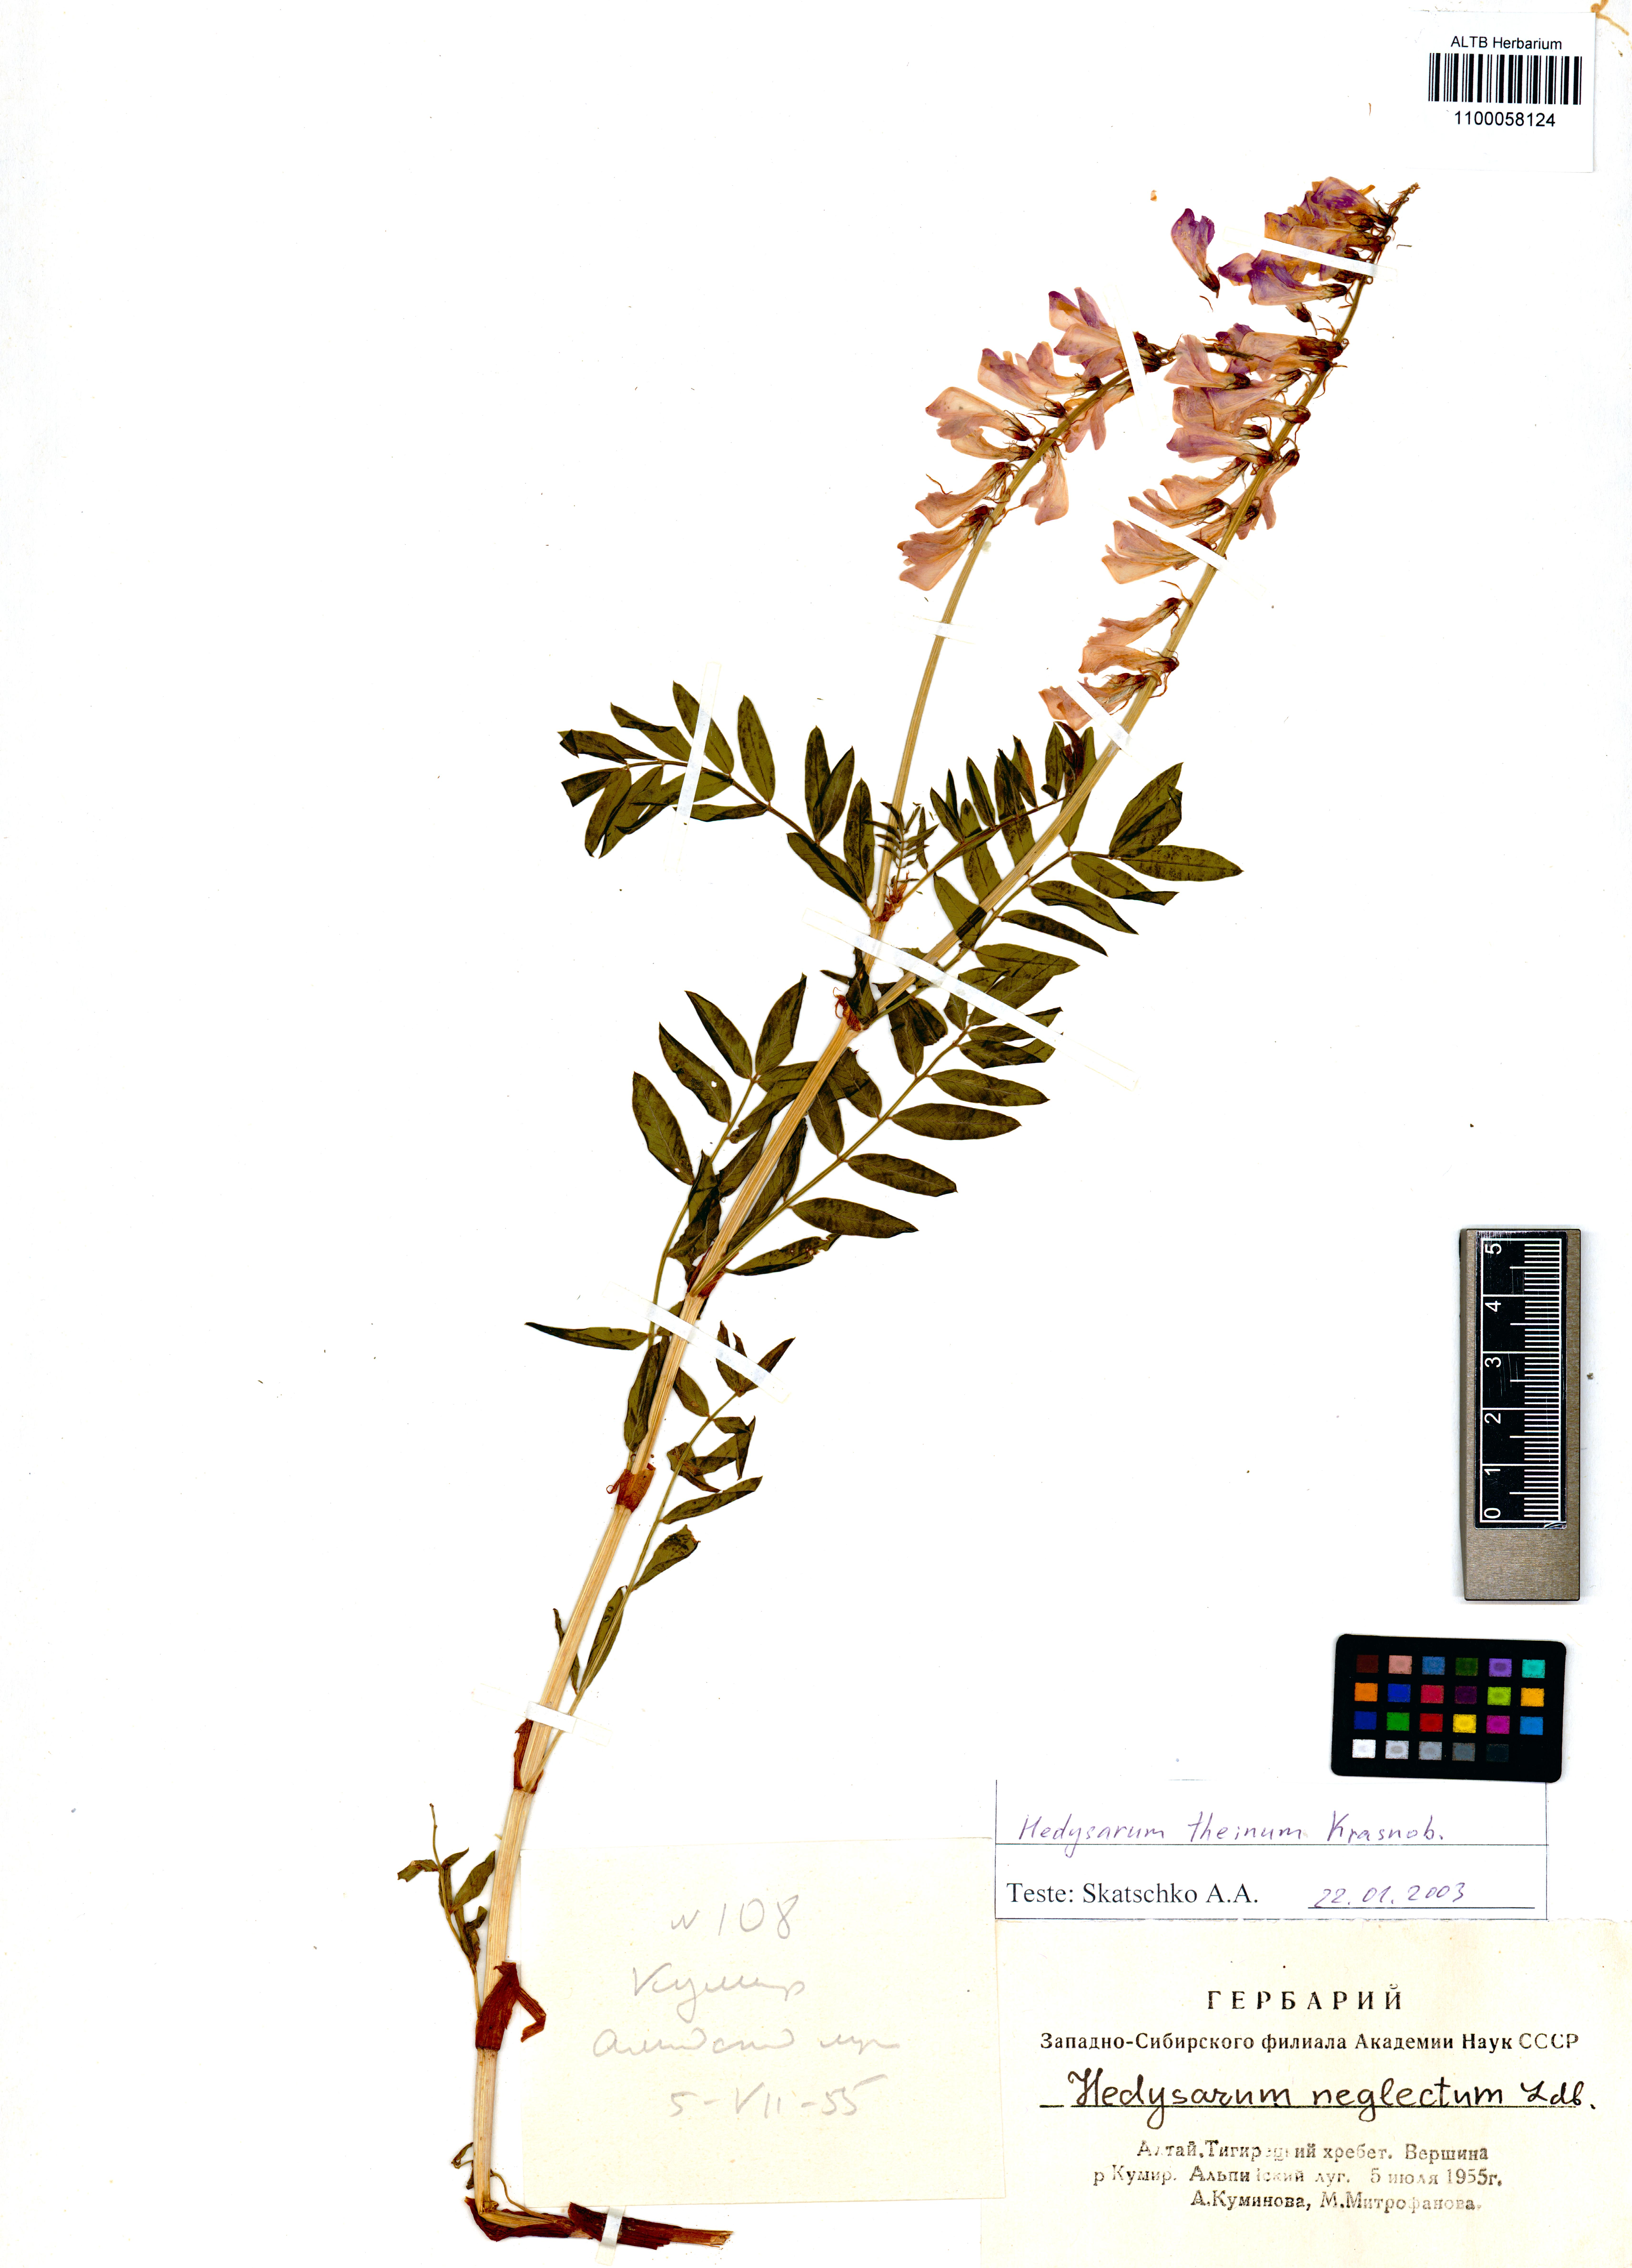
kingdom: Plantae
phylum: Tracheophyta
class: Magnoliopsida
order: Fabales
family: Fabaceae
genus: Hedysarum
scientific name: Hedysarum theinum
